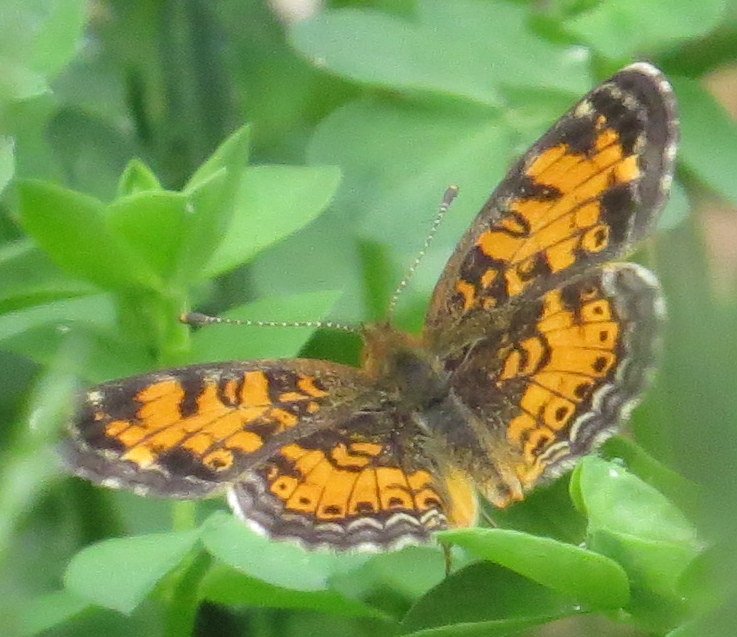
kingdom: Animalia
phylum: Arthropoda
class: Insecta
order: Lepidoptera
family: Nymphalidae
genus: Phyciodes
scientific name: Phyciodes tharos
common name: Pearl Crescent
